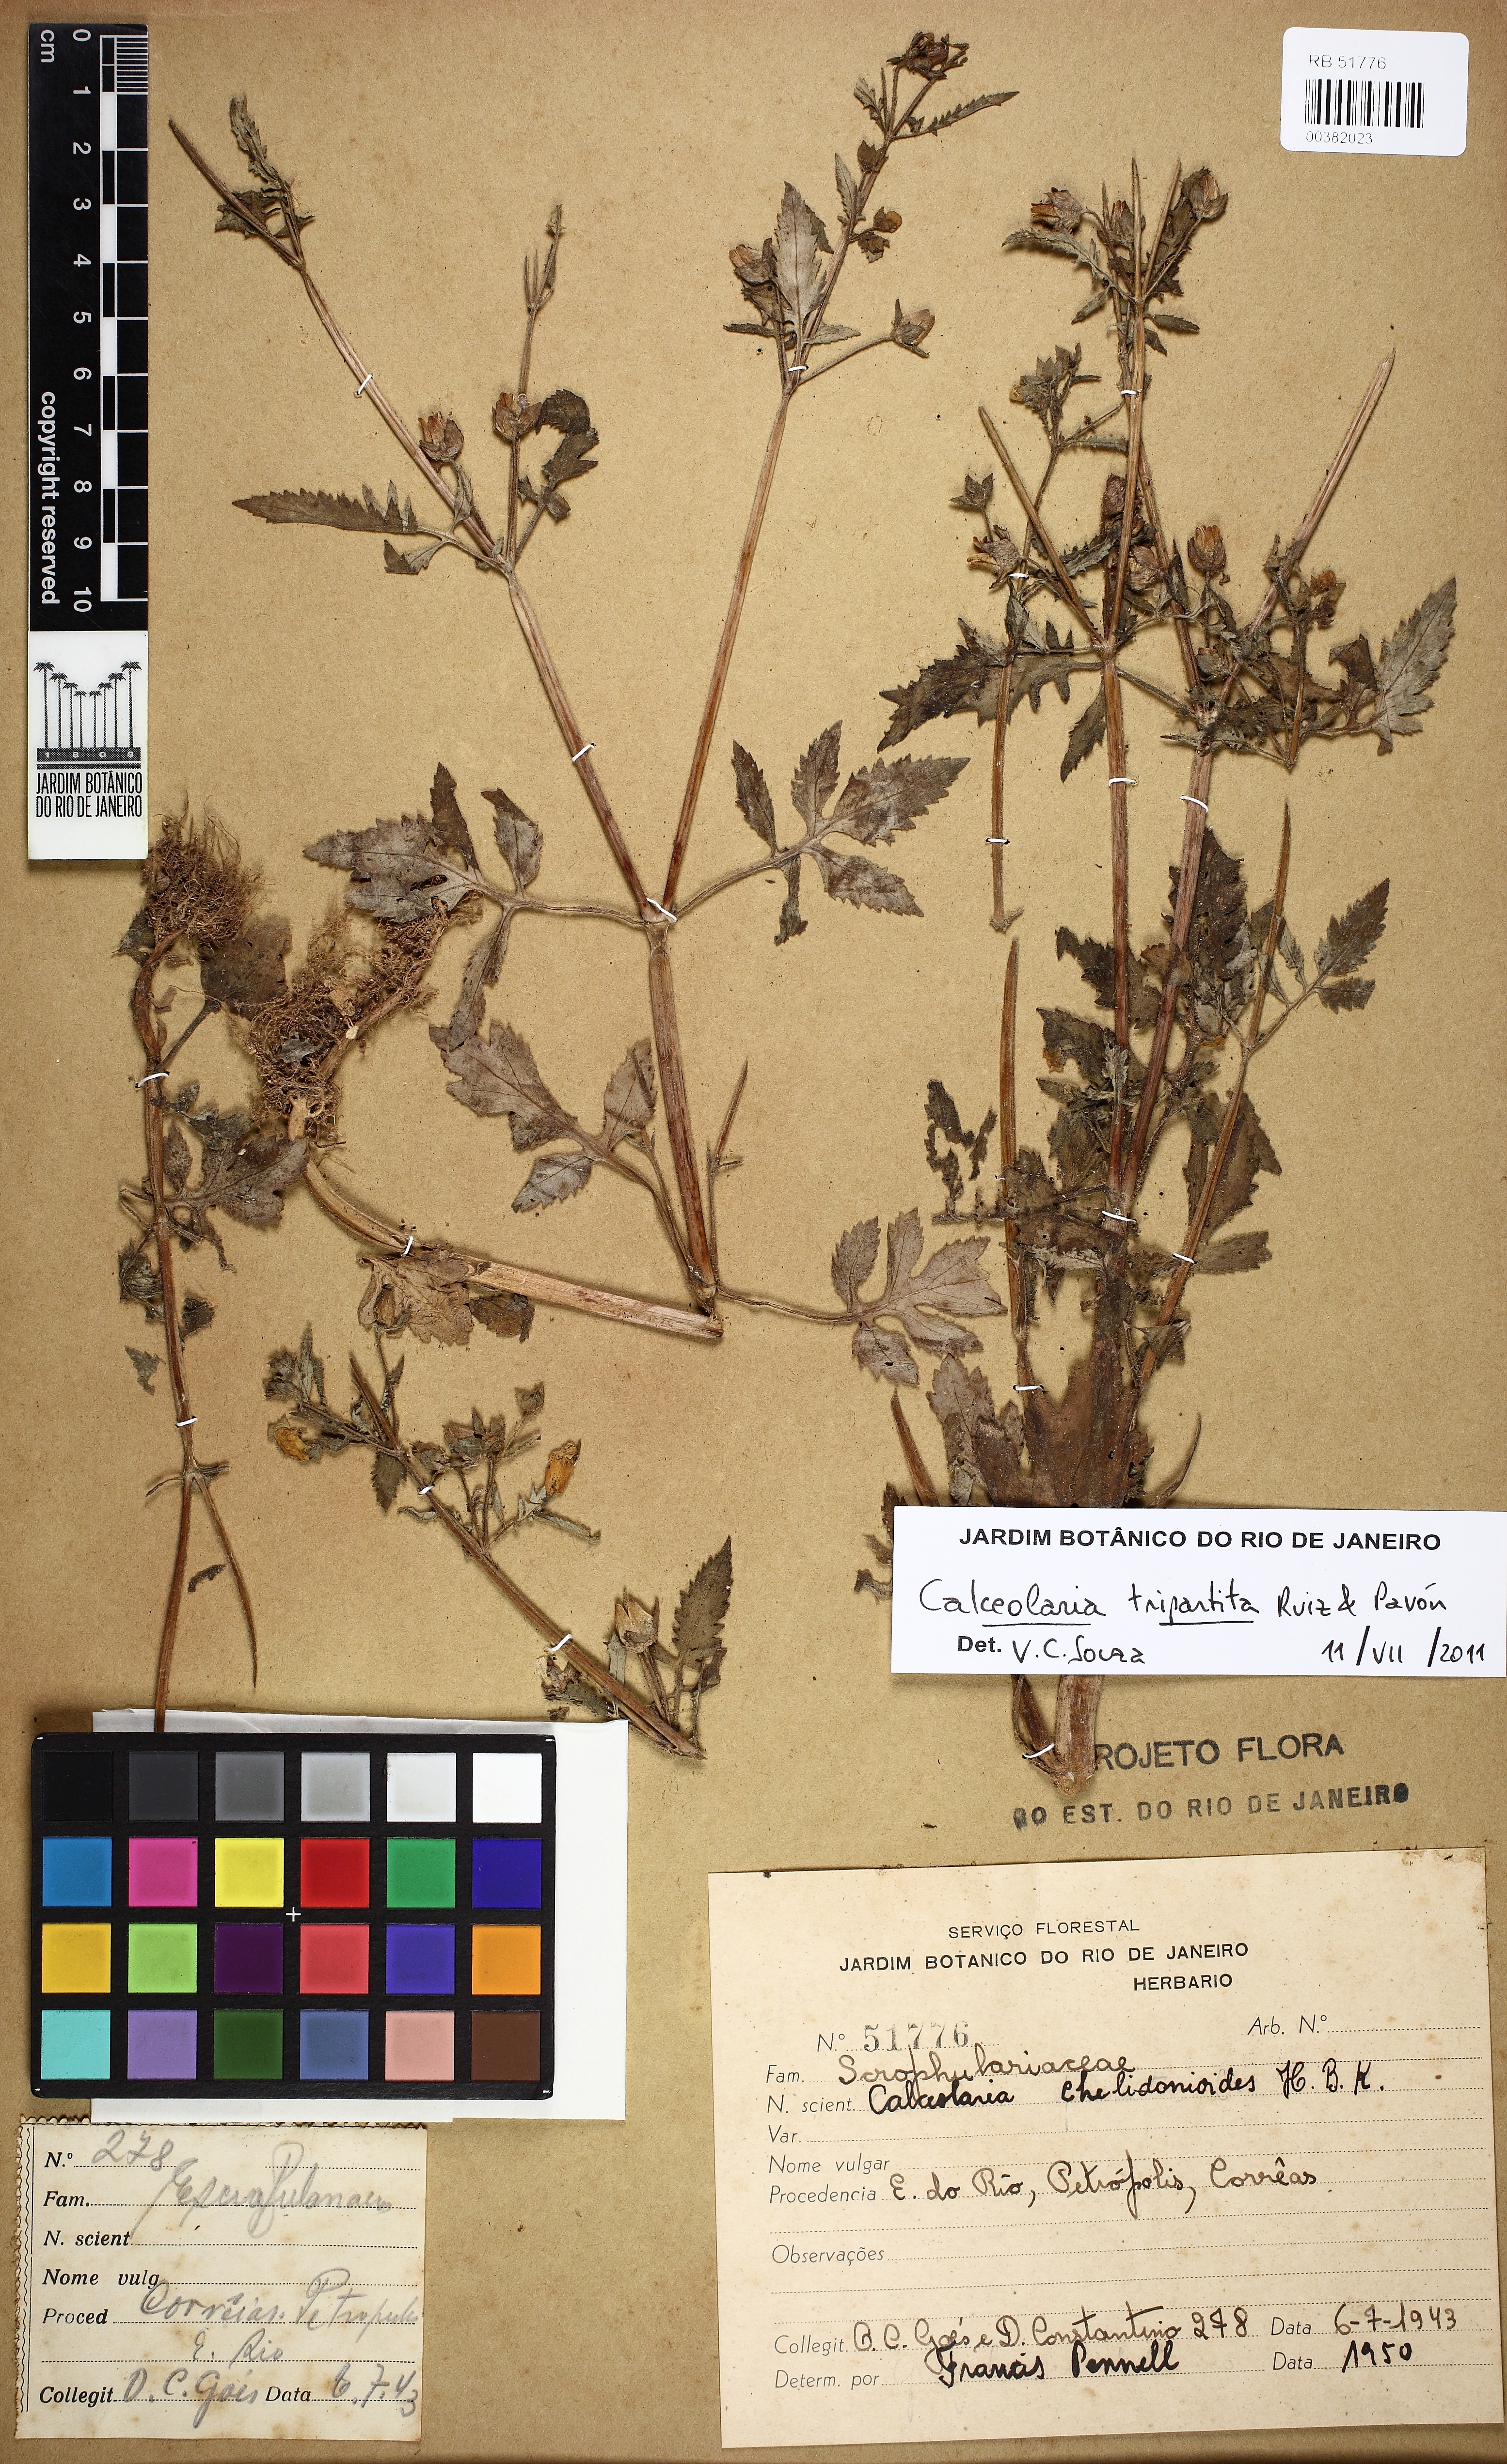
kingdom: Plantae
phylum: Tracheophyta
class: Magnoliopsida
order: Lamiales
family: Calceolariaceae
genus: Calceolaria
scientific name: Calceolaria tripartita
